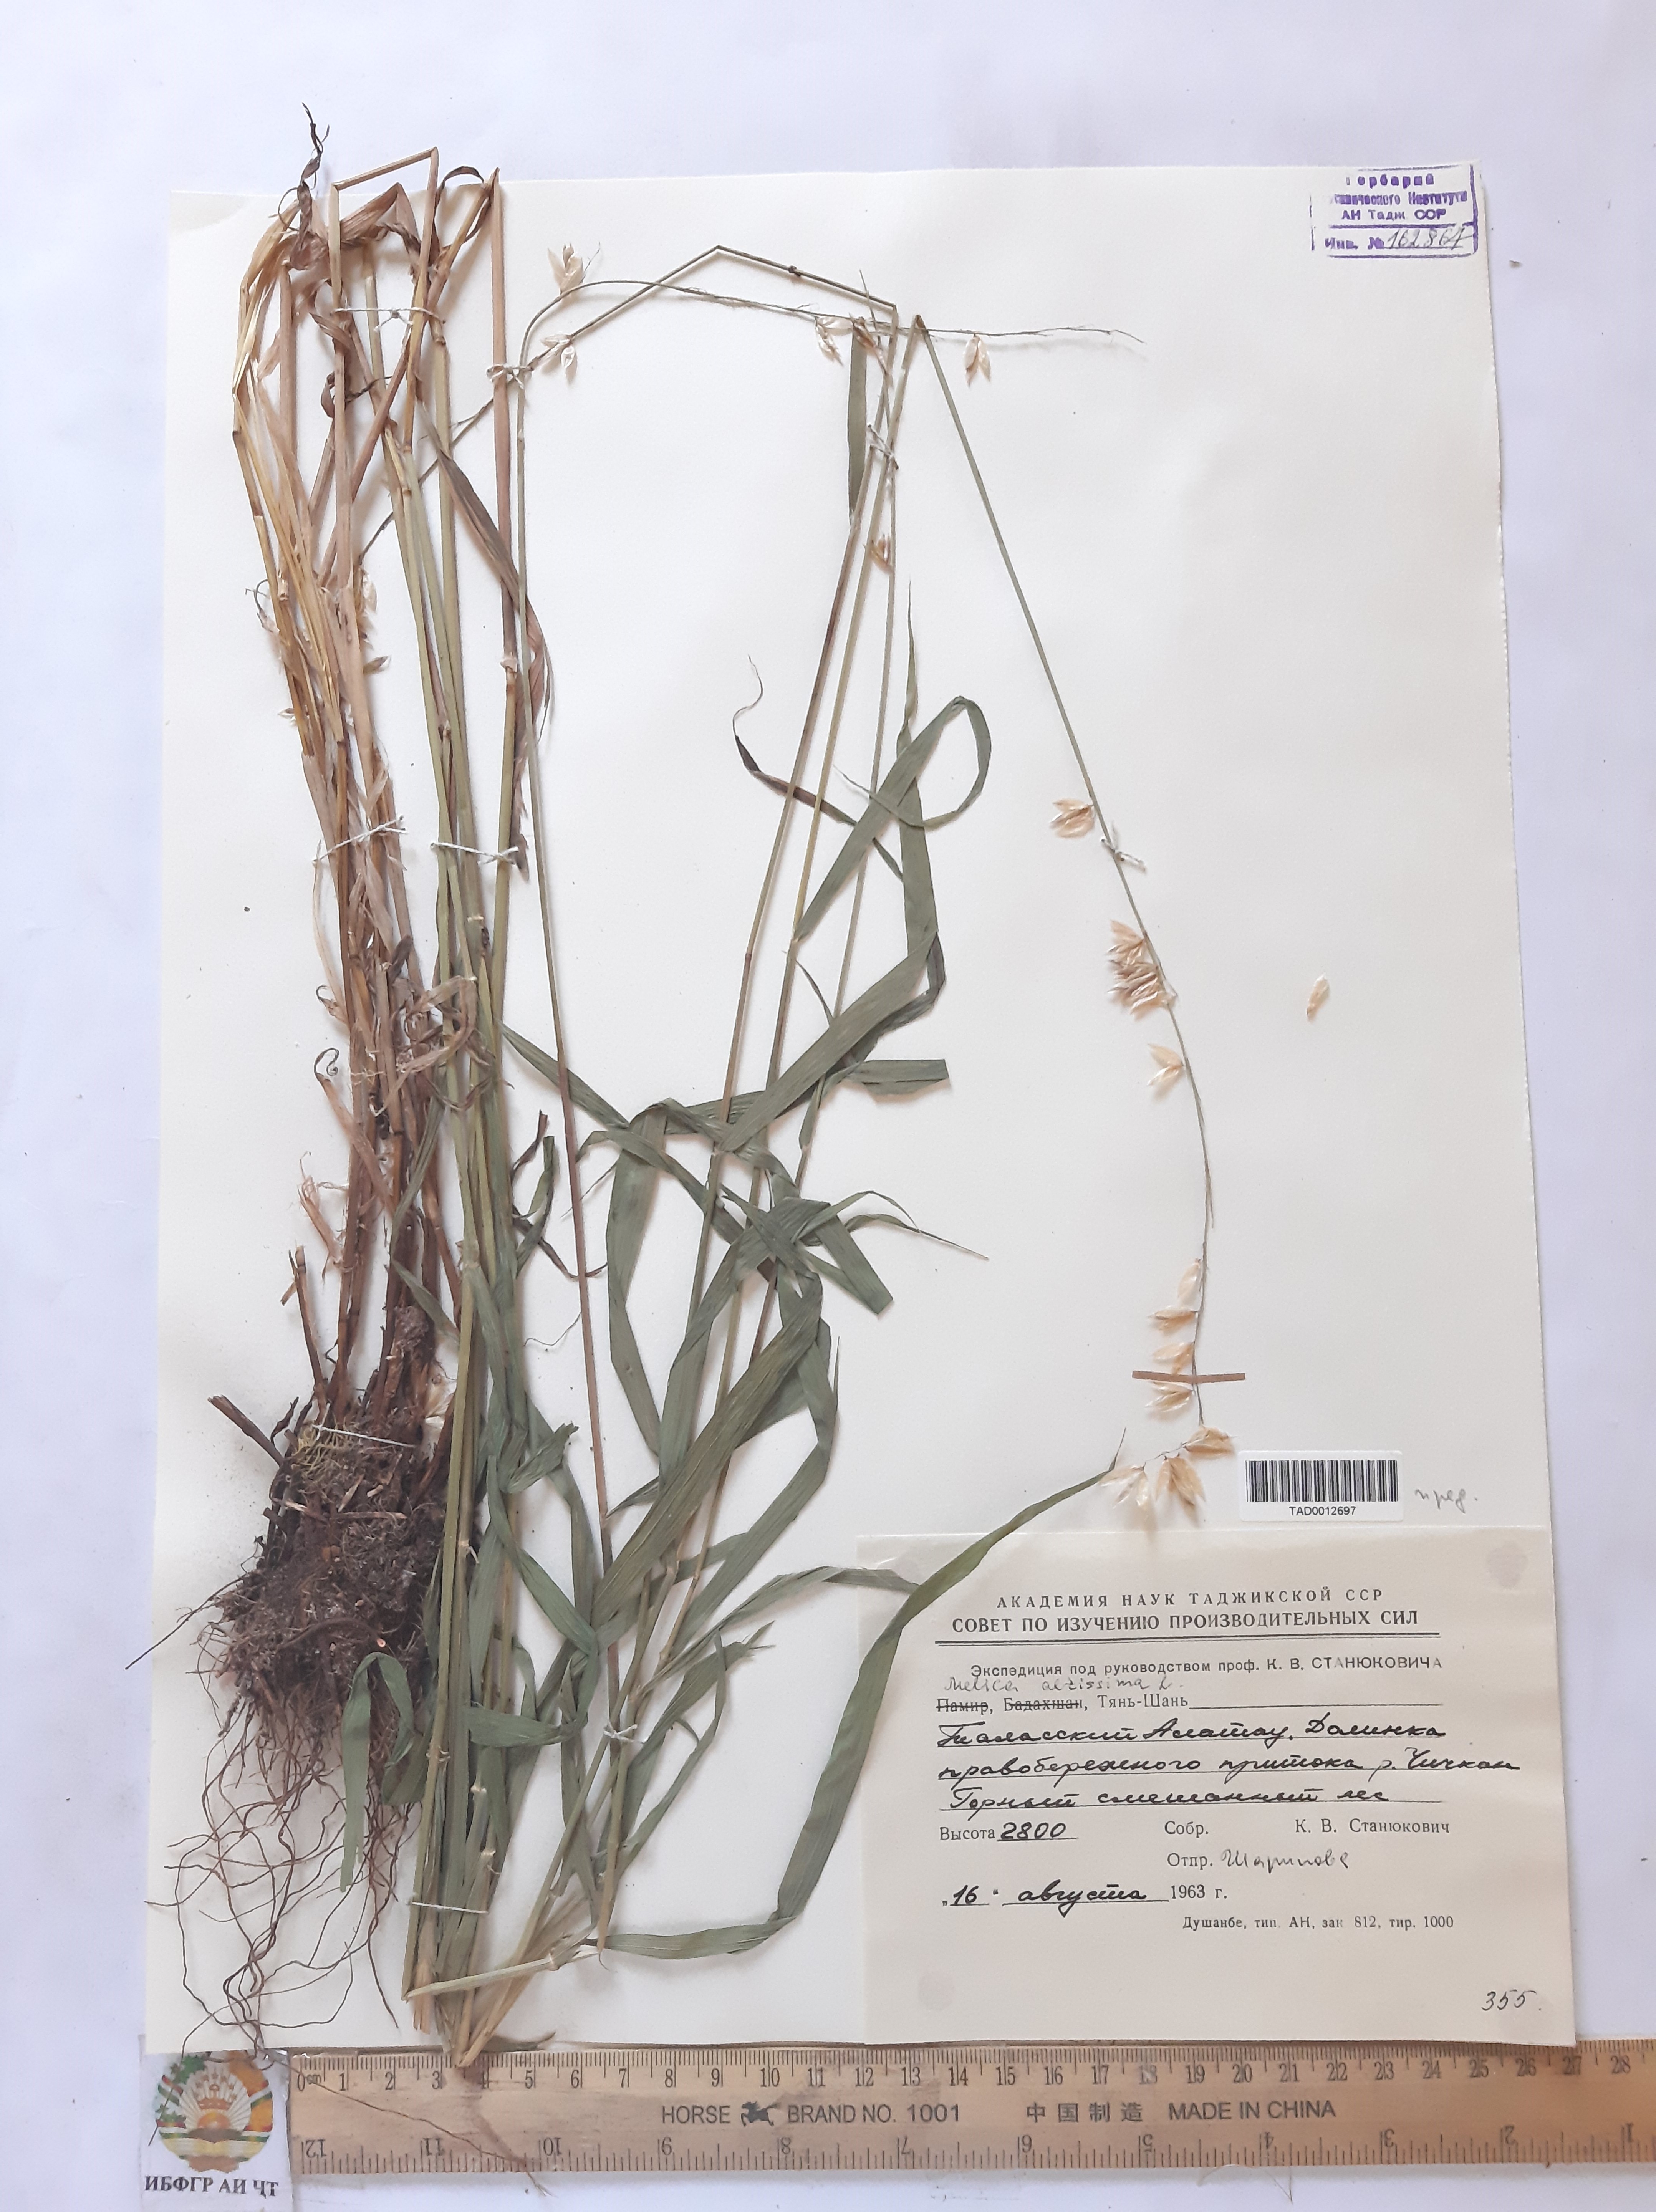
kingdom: Plantae
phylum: Tracheophyta
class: Liliopsida
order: Poales
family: Poaceae
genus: Melica
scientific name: Melica altissima
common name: Siberian melicgrass
